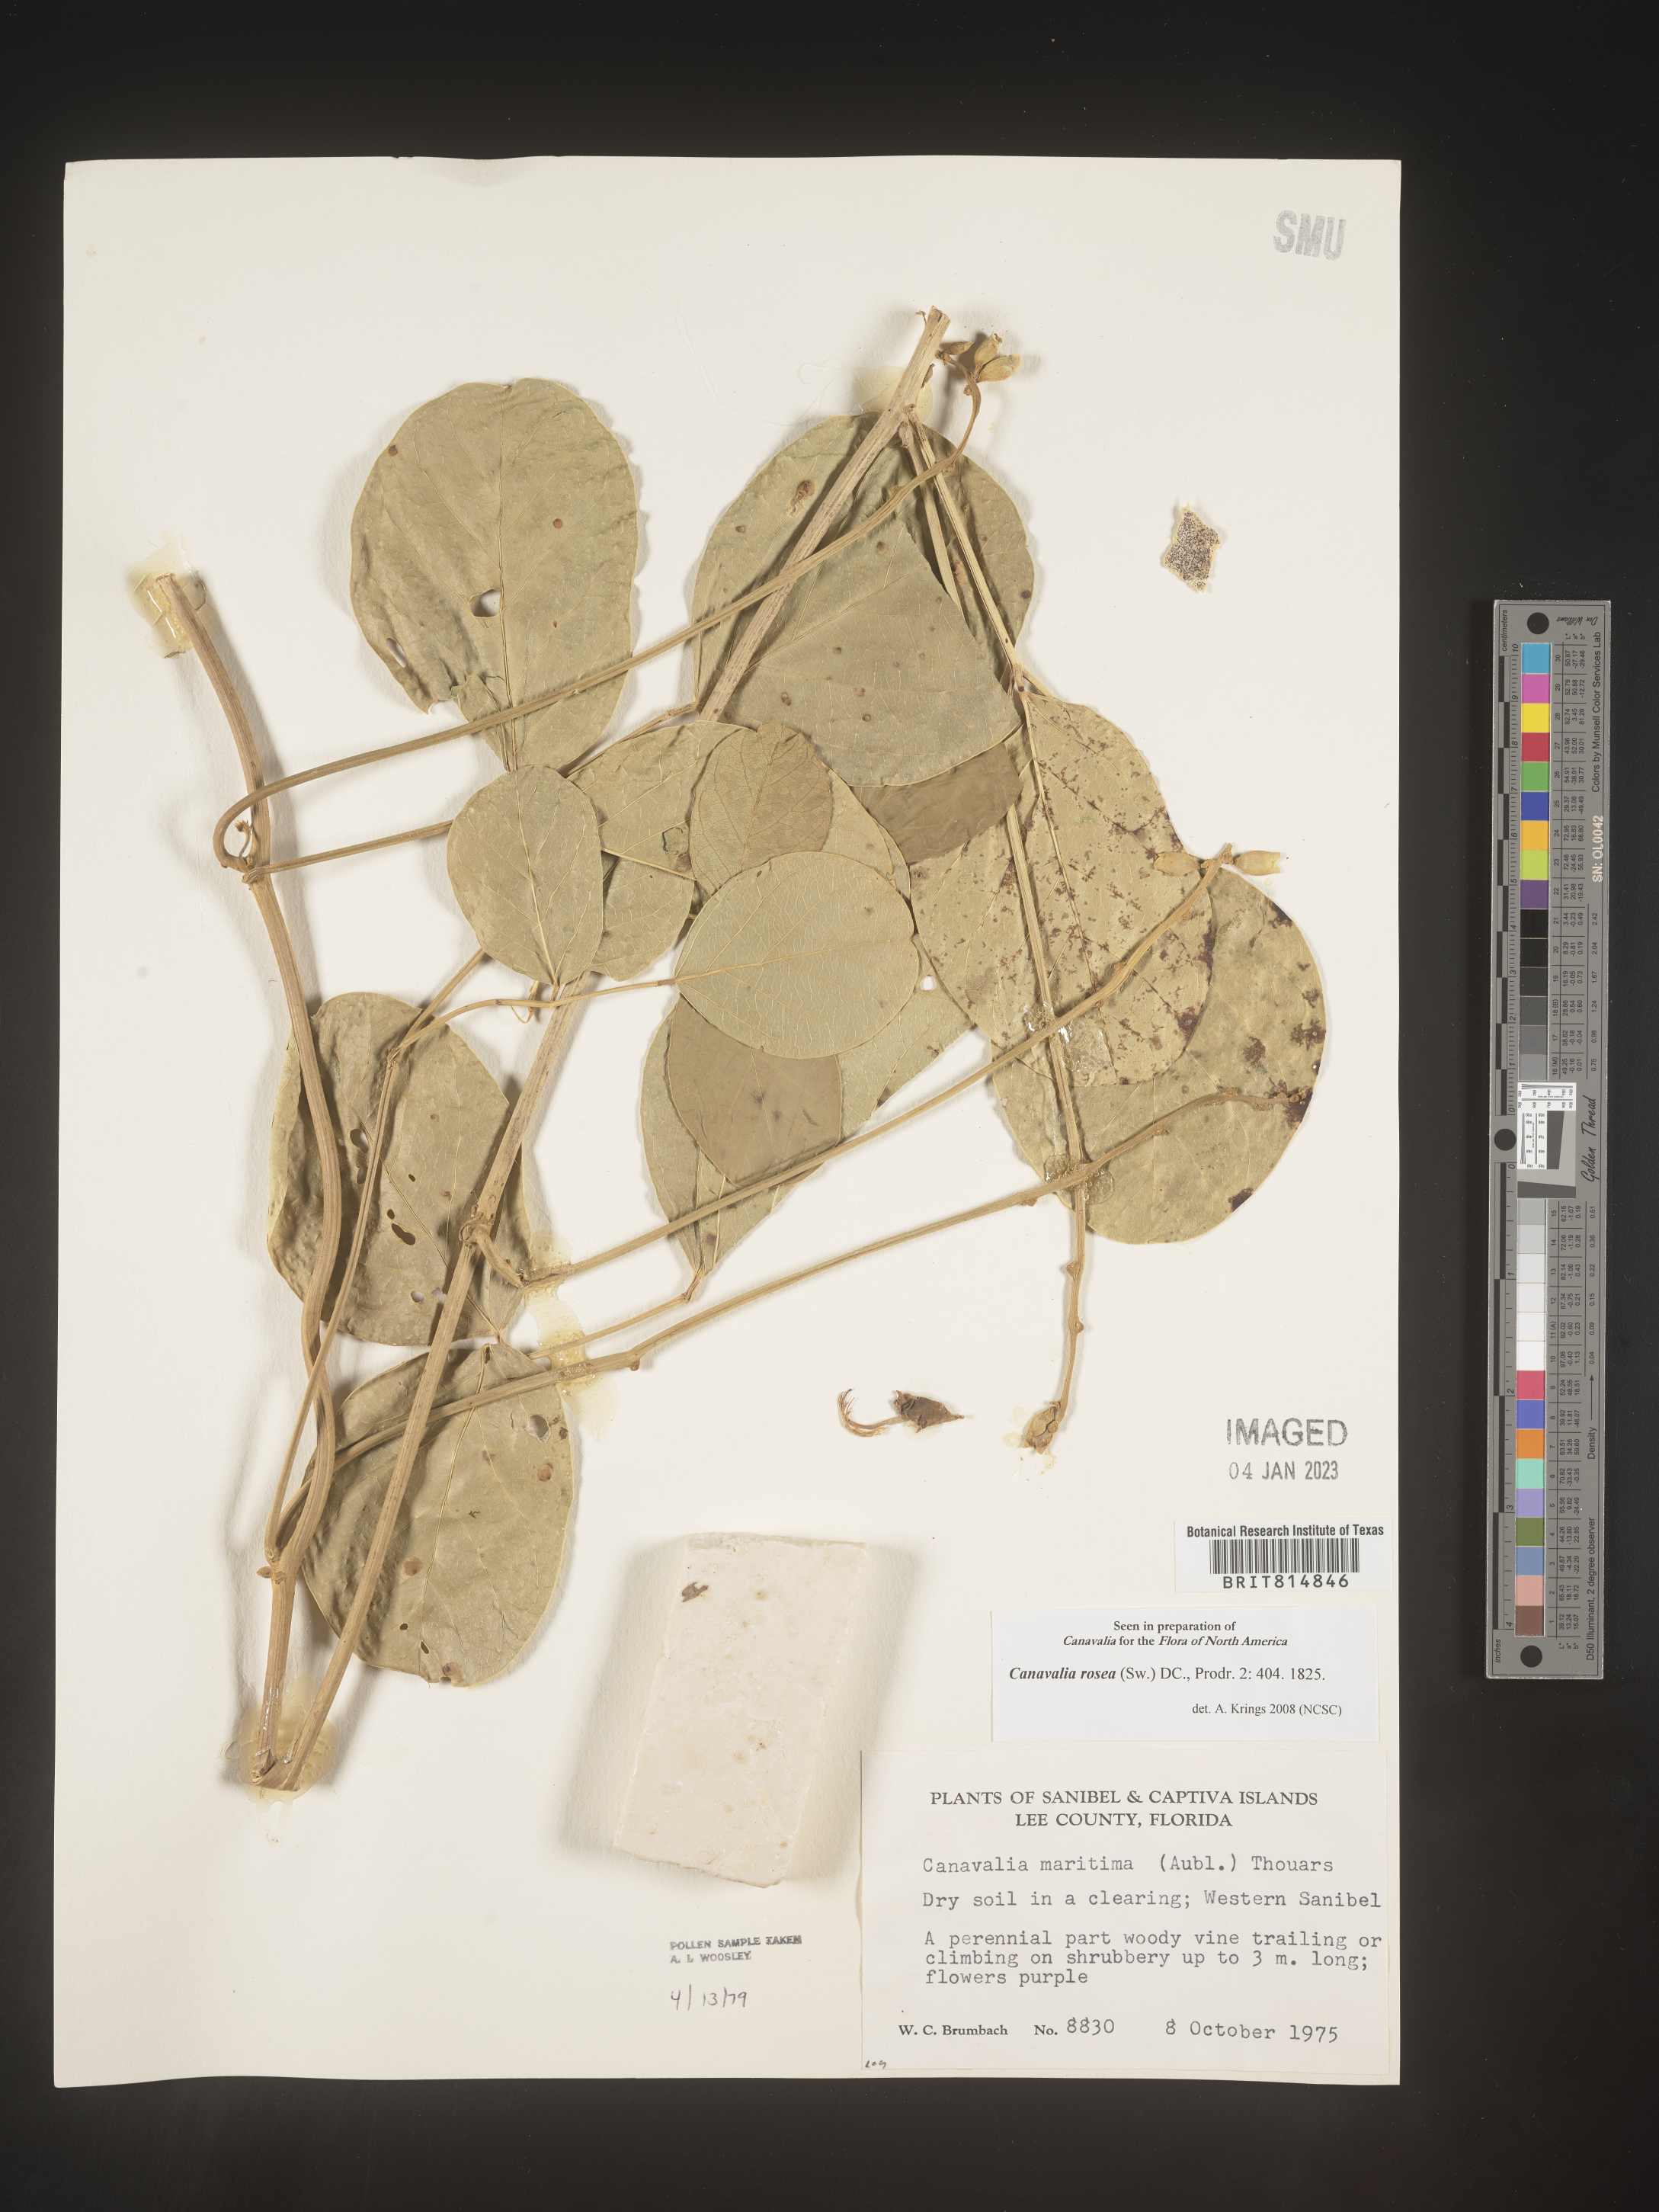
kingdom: Plantae
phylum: Tracheophyta
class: Magnoliopsida
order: Fabales
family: Fabaceae
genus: Canavalia
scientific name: Canavalia
